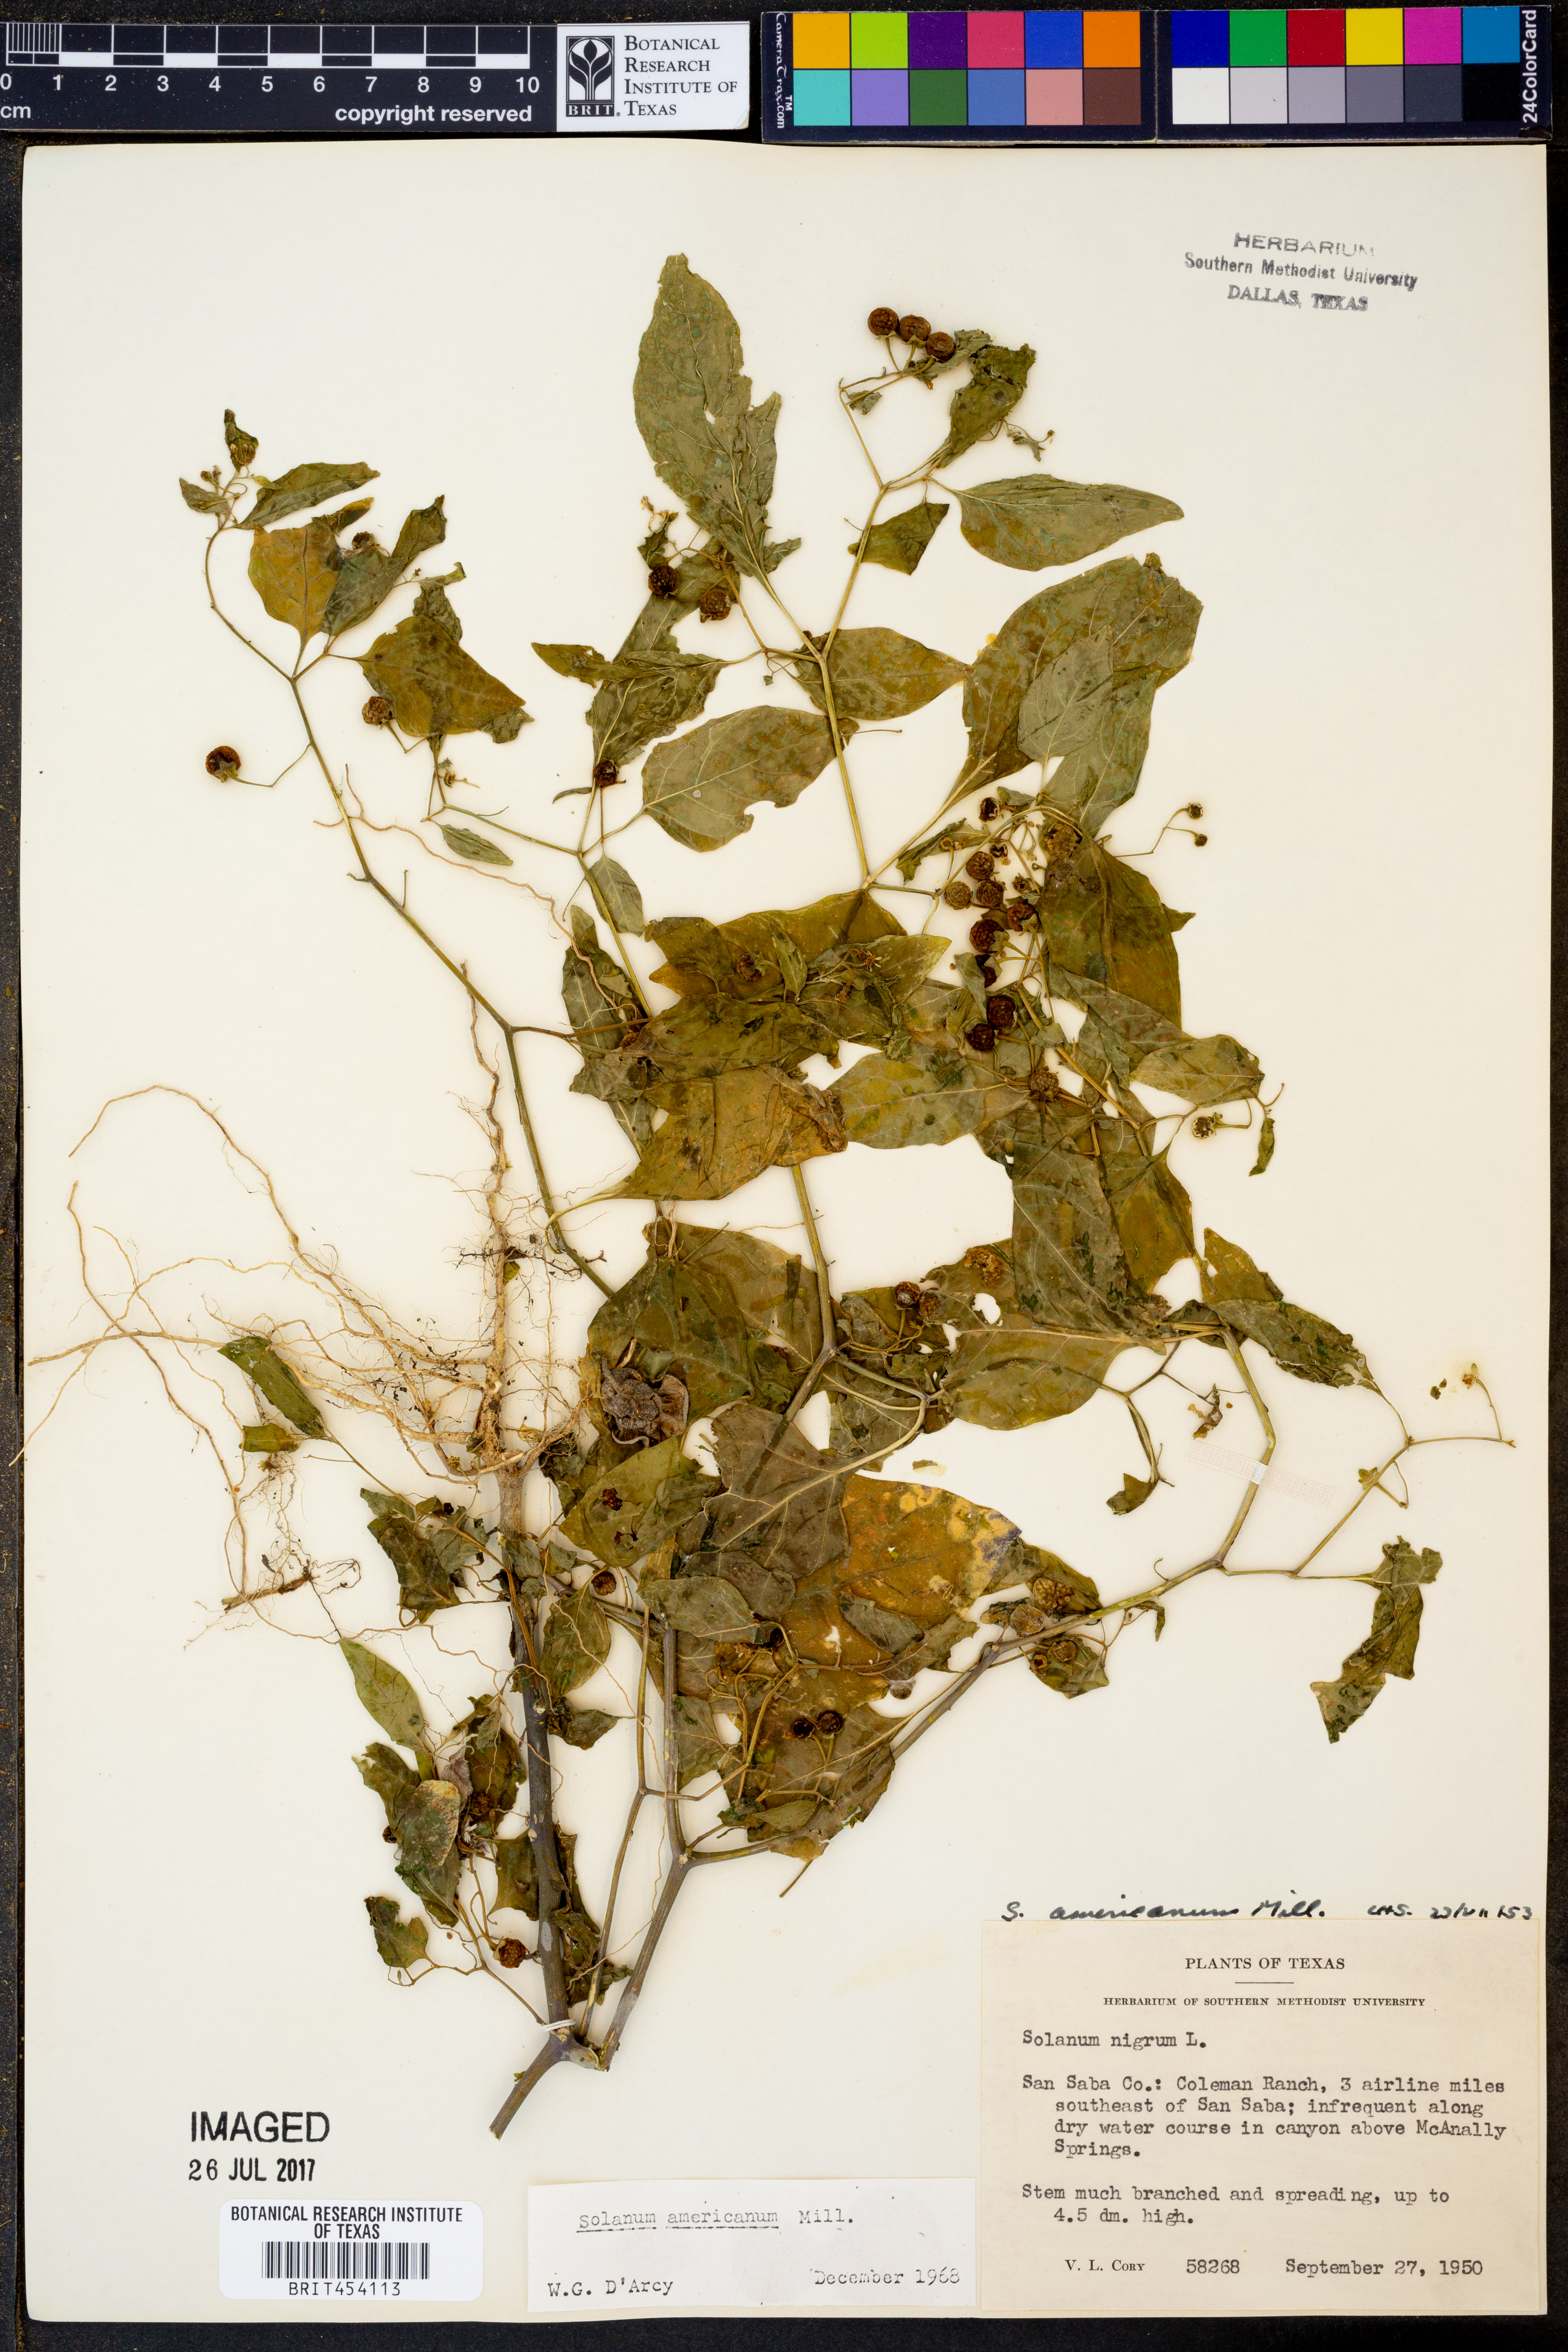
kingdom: Plantae
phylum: Tracheophyta
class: Magnoliopsida
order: Solanales
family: Solanaceae
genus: Solanum
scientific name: Solanum americanum
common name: American black nightshade
